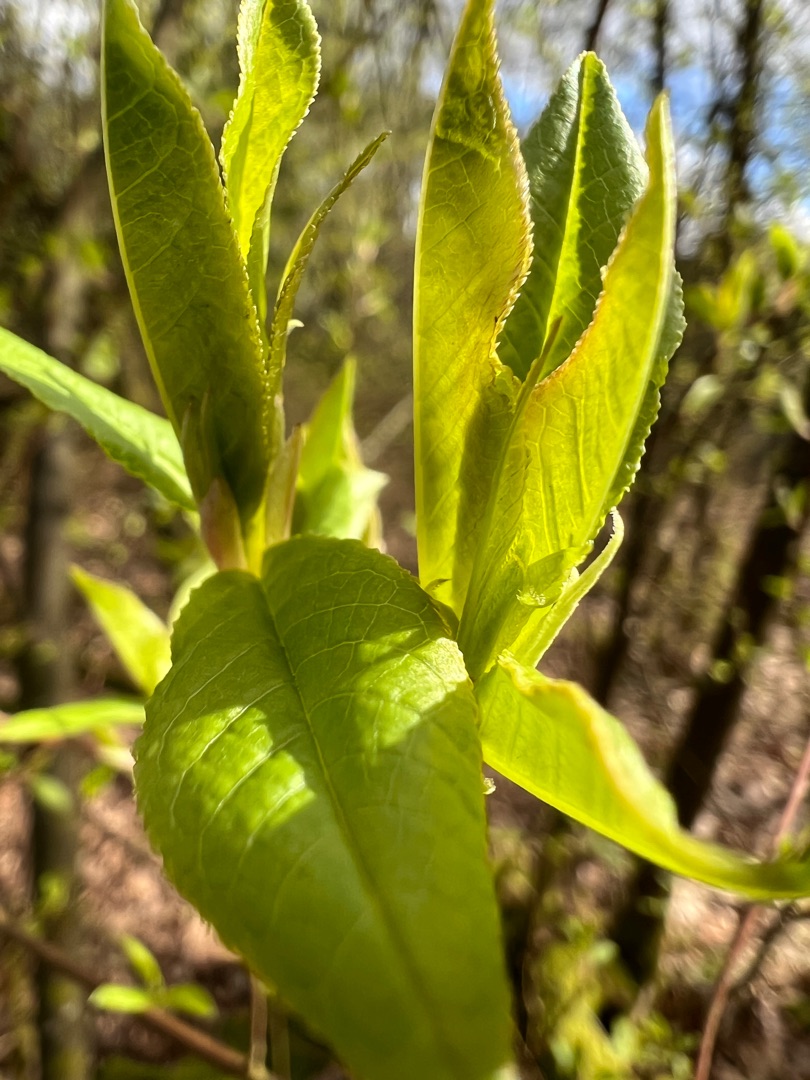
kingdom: Plantae
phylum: Tracheophyta
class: Magnoliopsida
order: Rosales
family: Rosaceae
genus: Prunus
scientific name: Prunus padus
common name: Almindelig hæg
